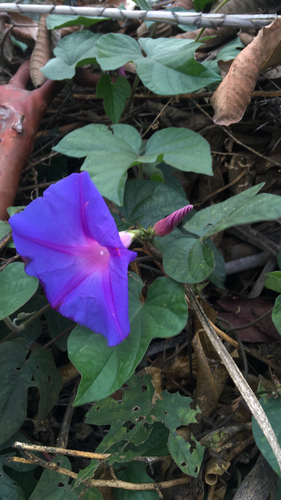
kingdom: Plantae
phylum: Tracheophyta
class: Magnoliopsida
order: Solanales
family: Convolvulaceae
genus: Ipomoea
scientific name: Ipomoea indica
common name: Blue dawnflower
